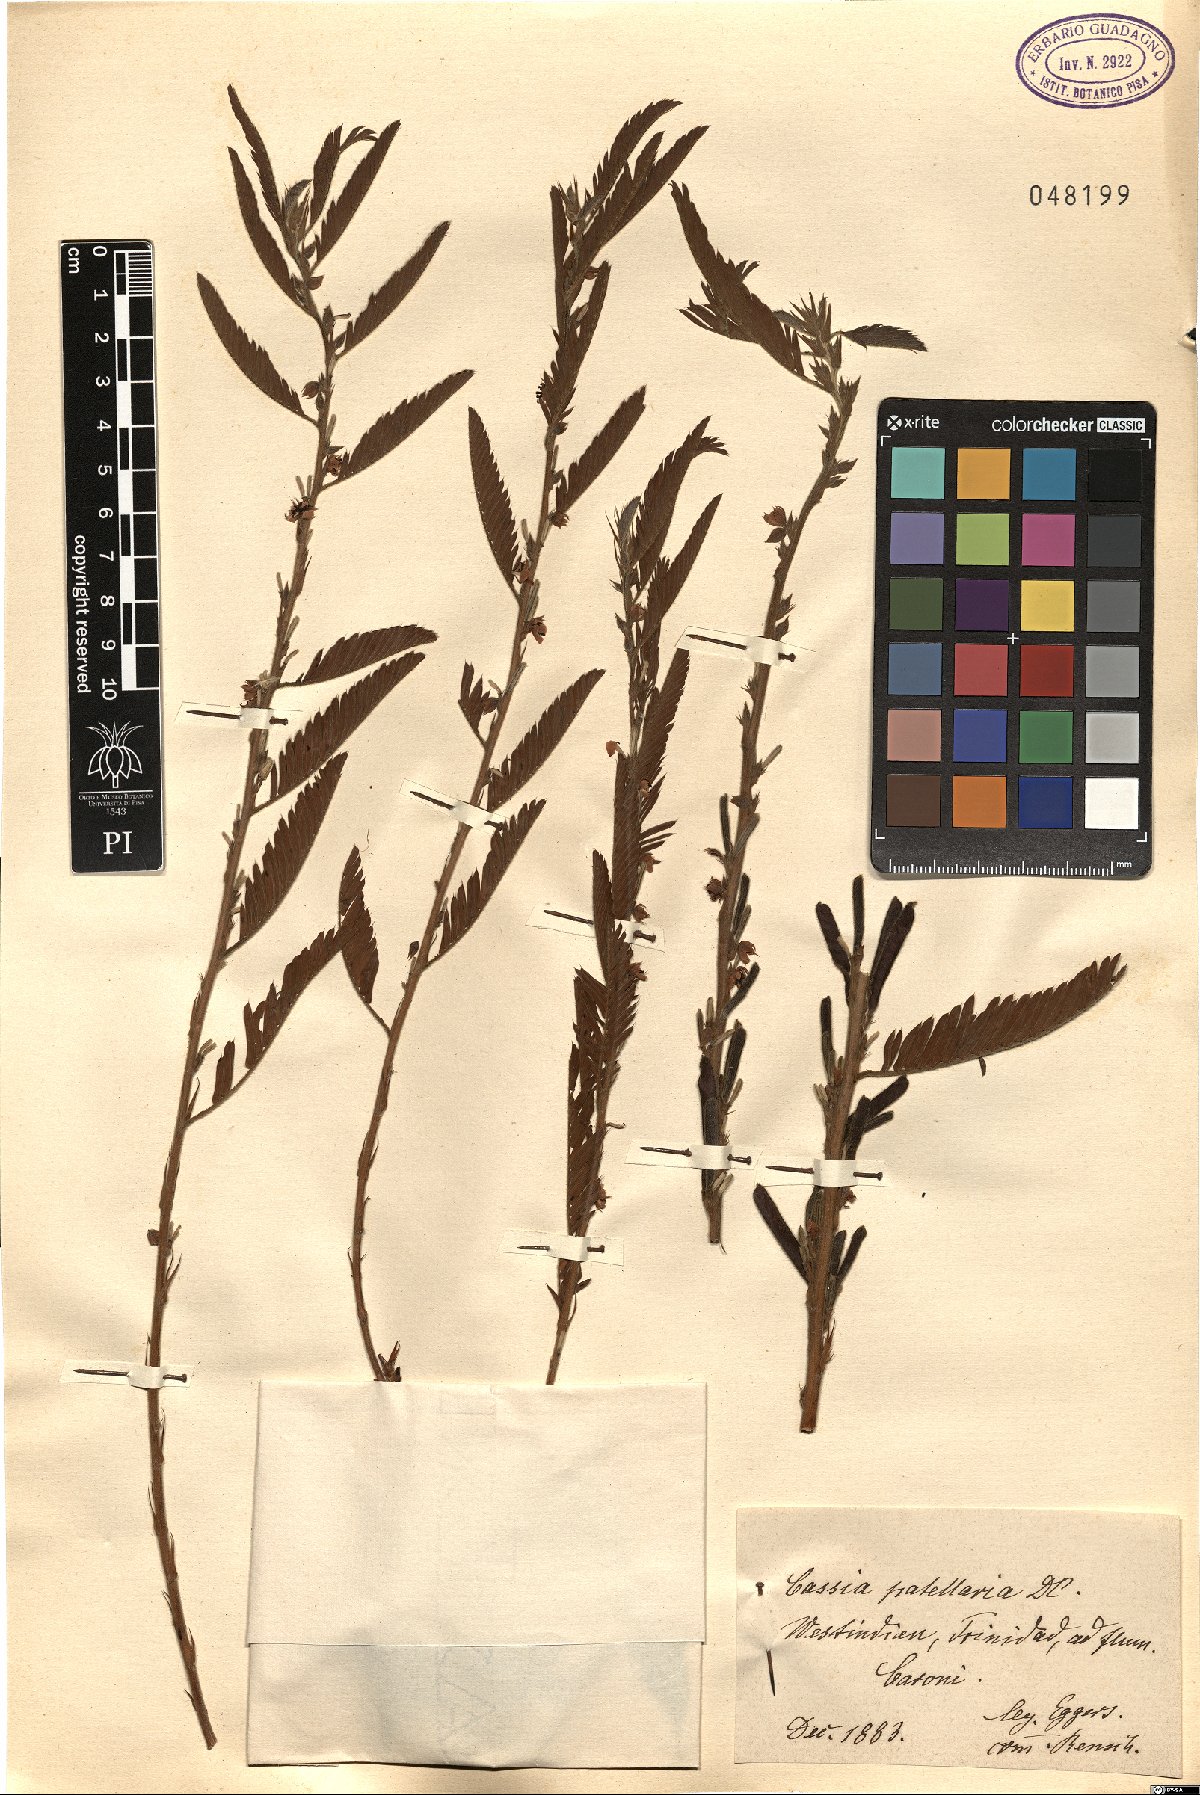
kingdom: Plantae
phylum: Tracheophyta
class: Magnoliopsida
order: Fabales
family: Fabaceae
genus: Chamaecrista
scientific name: Chamaecrista nictitans
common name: Sensitive cassia
